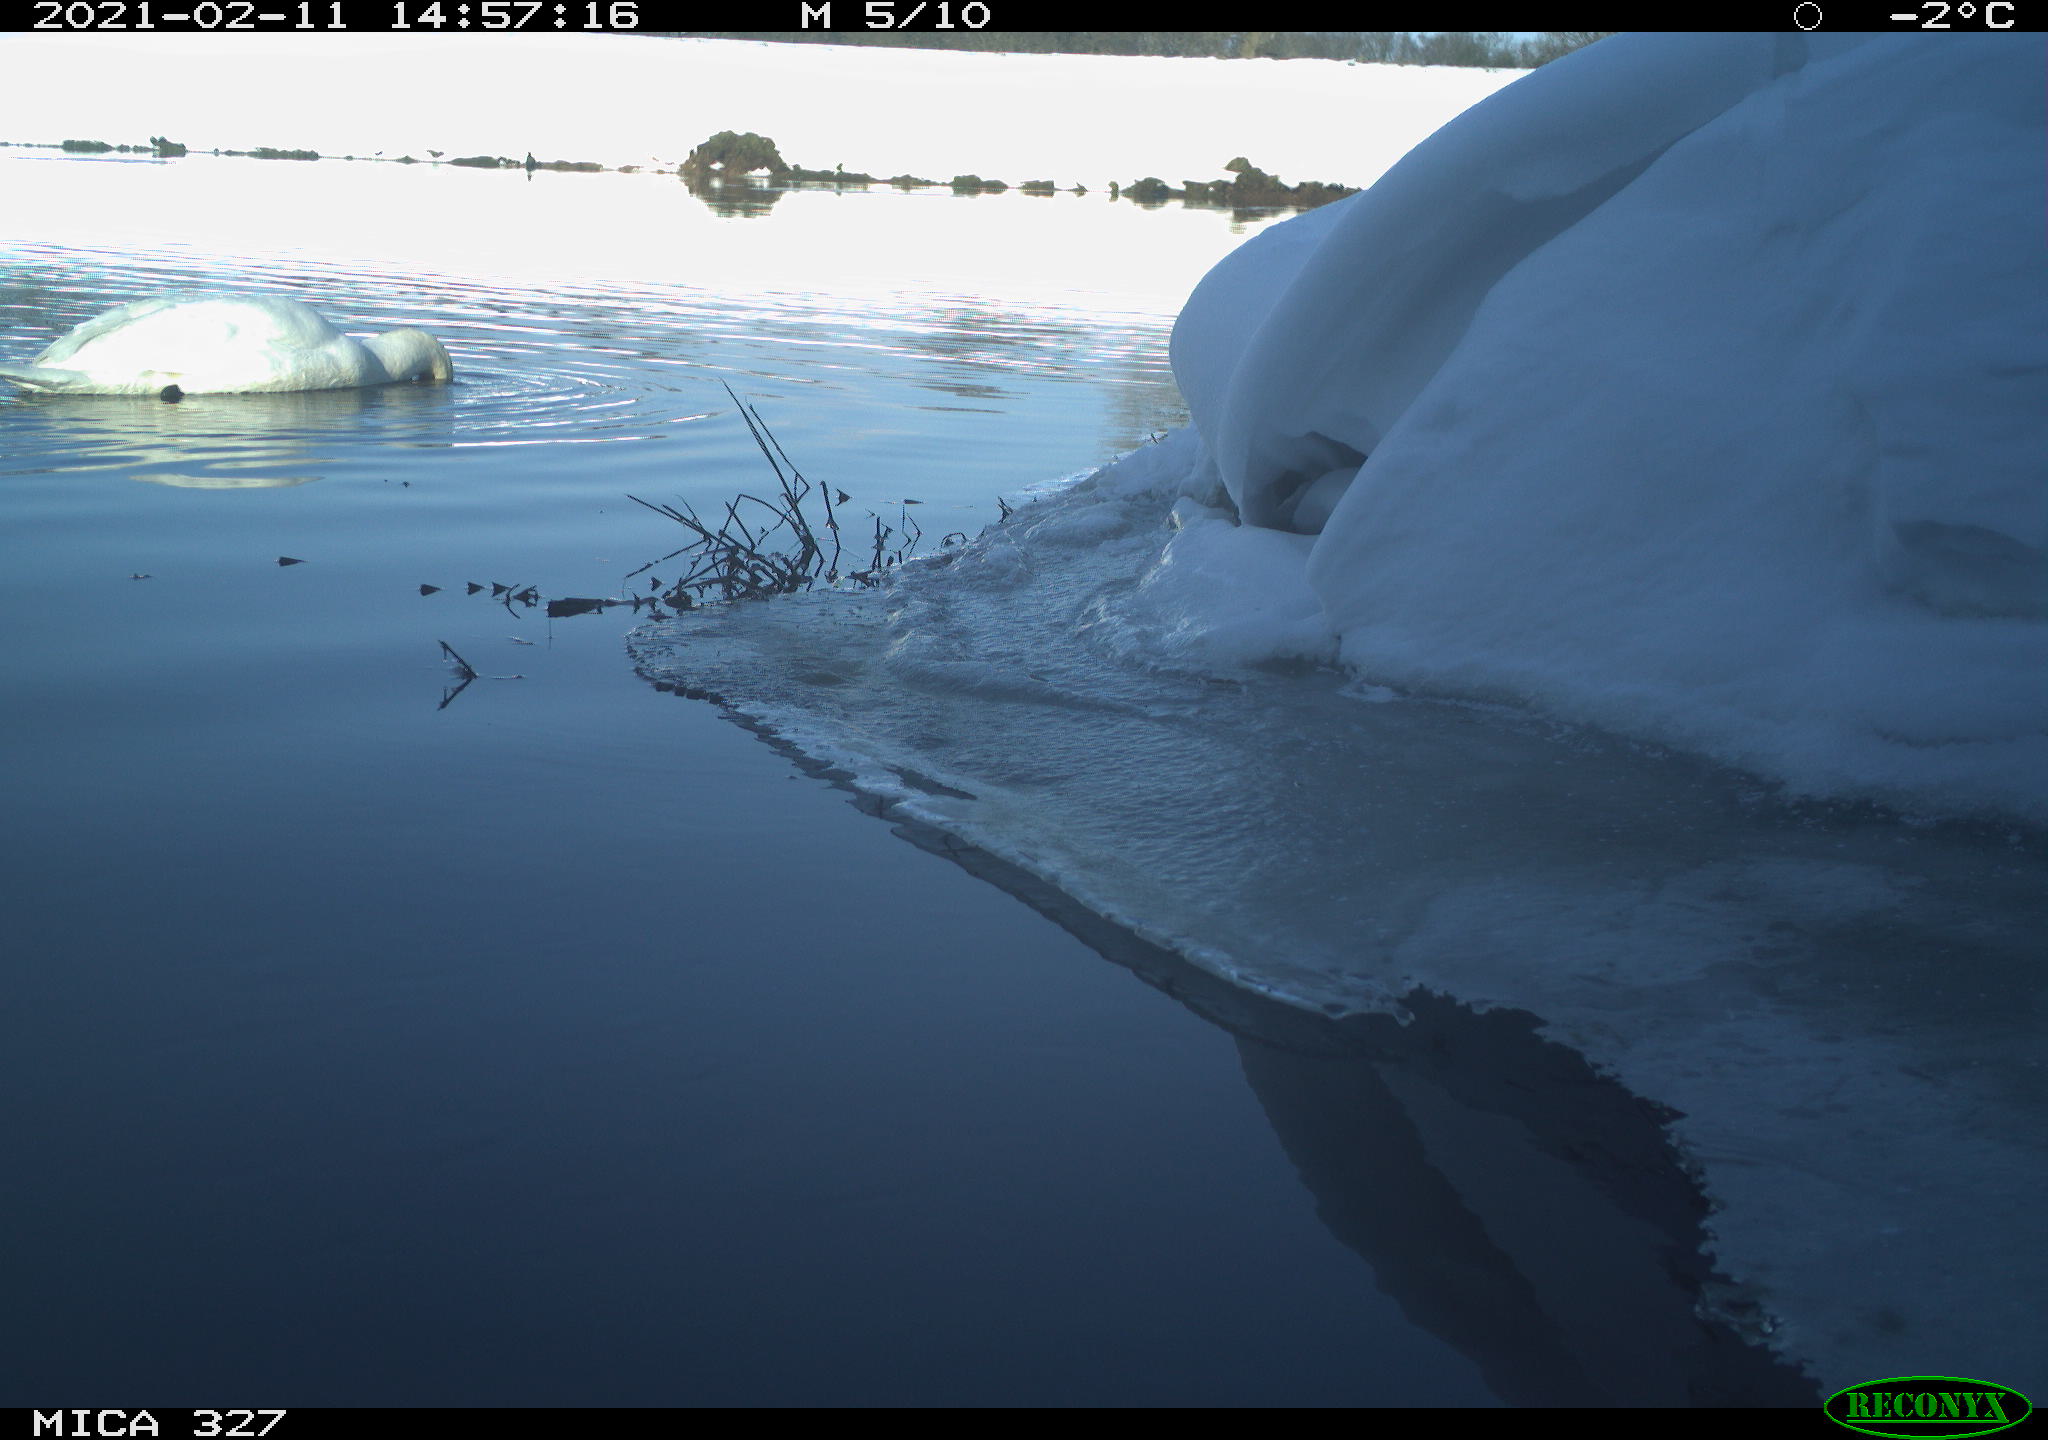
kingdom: Animalia
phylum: Chordata
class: Aves
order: Anseriformes
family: Anatidae
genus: Cygnus
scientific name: Cygnus olor
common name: Mute swan
